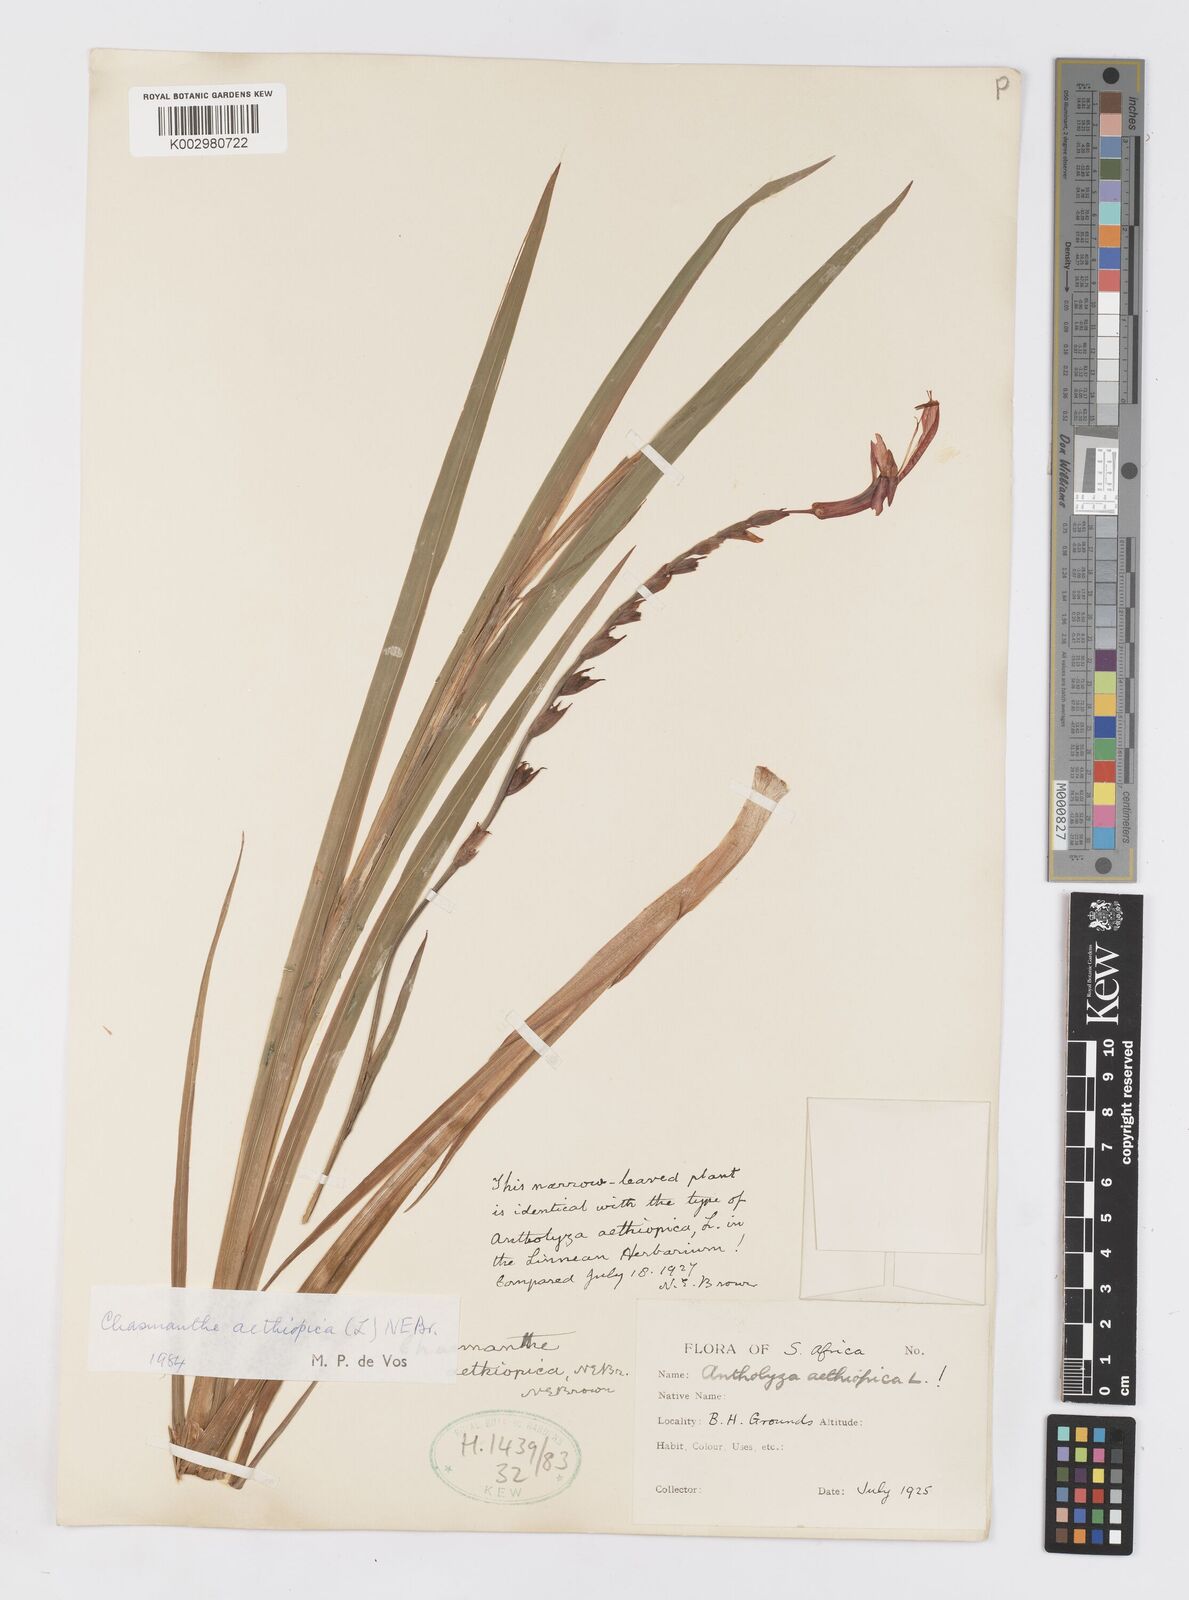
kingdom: Plantae
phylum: Tracheophyta
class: Liliopsida
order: Asparagales
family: Iridaceae
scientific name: Iridaceae
